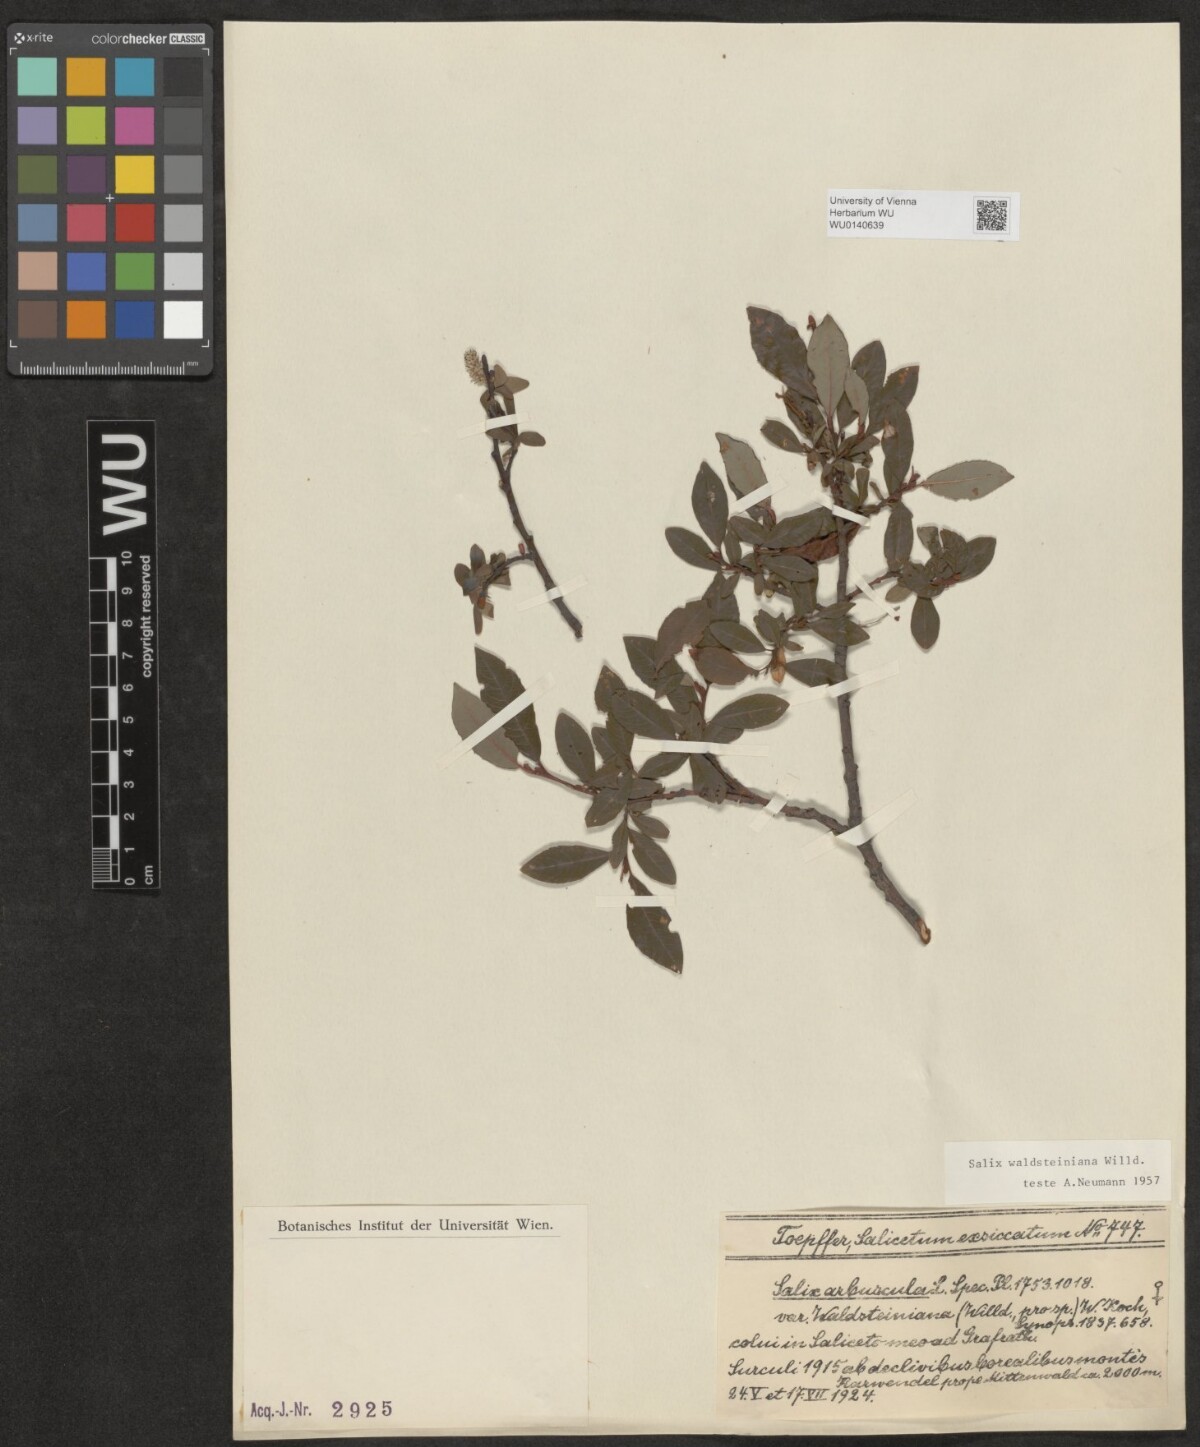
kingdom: Plantae
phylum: Tracheophyta
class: Magnoliopsida
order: Malpighiales
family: Salicaceae
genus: Salix
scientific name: Salix waldsteiniana
